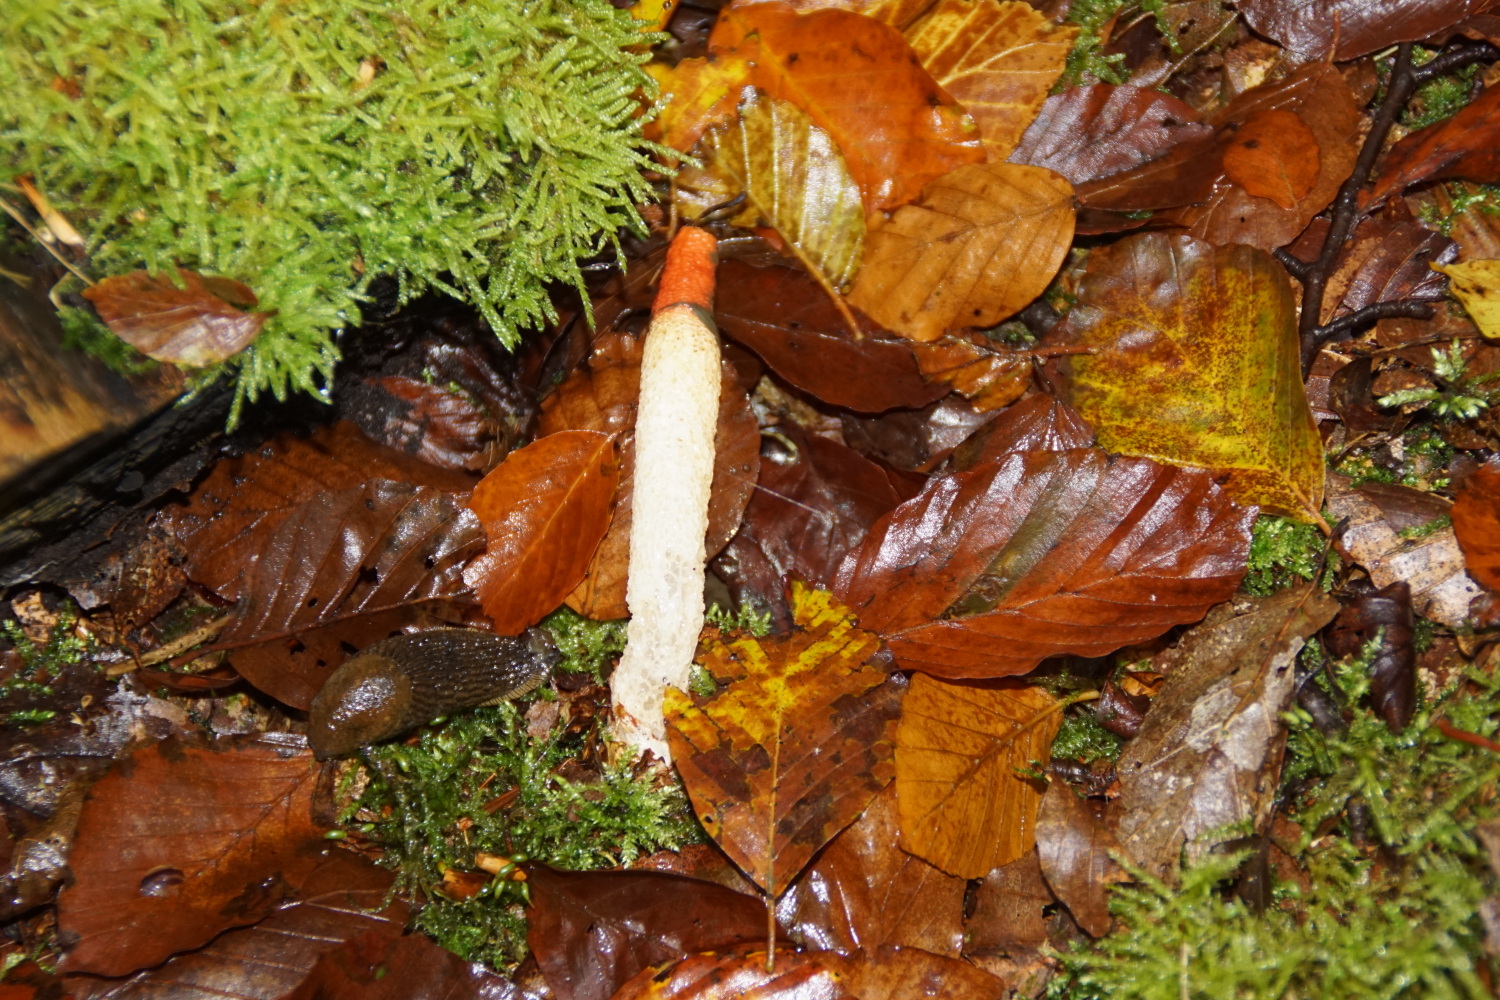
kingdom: Fungi
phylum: Basidiomycota
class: Agaricomycetes
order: Phallales
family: Phallaceae
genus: Mutinus
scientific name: Mutinus caninus
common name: hunde-stinksvamp
